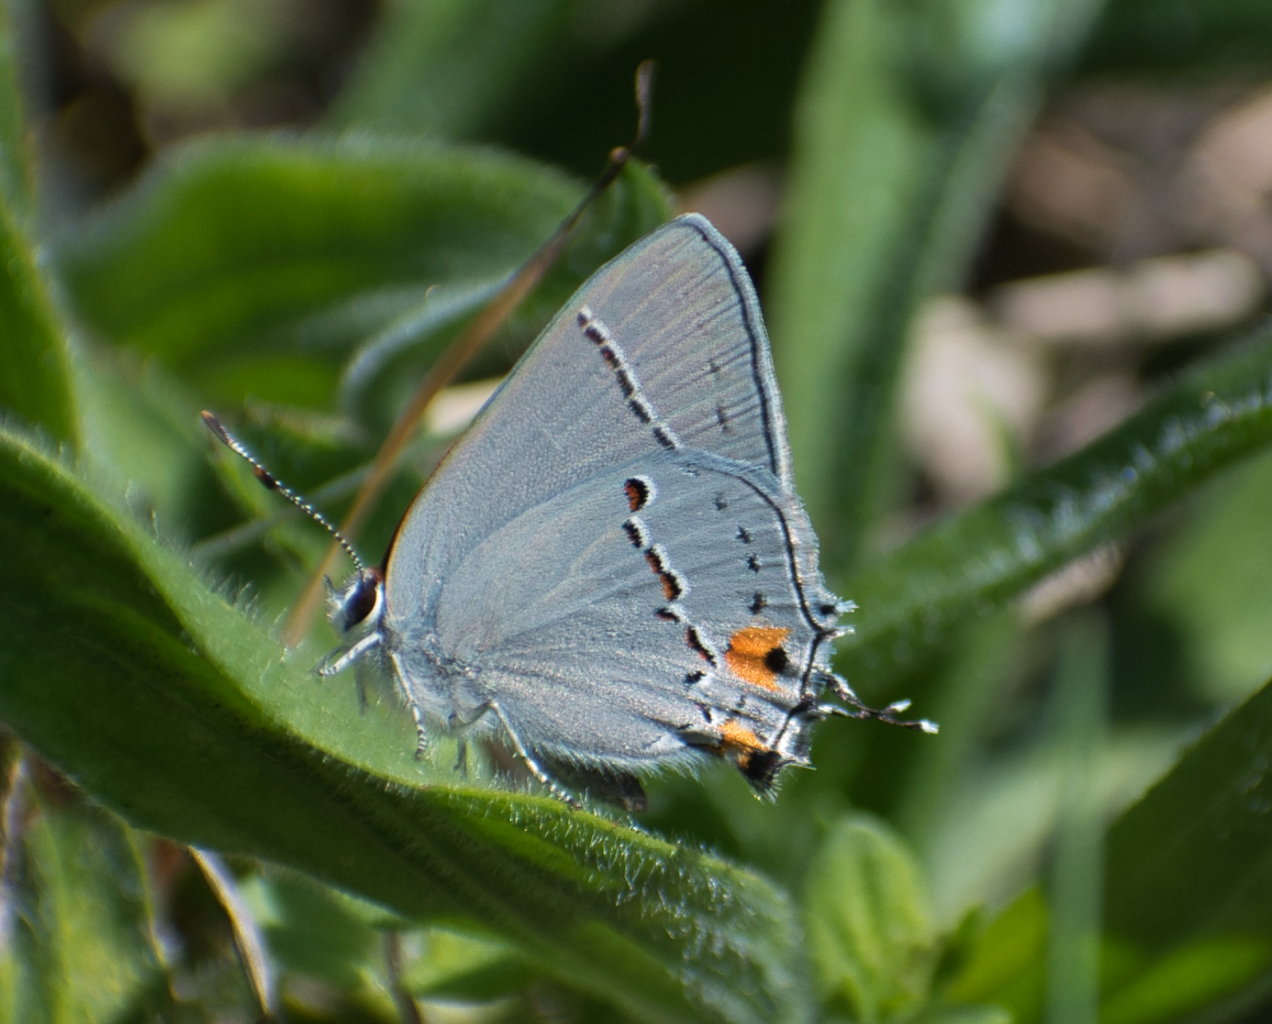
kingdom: Animalia
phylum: Arthropoda
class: Insecta
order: Lepidoptera
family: Lycaenidae
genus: Strymon
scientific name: Strymon melinus
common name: Gray Hairstreak
